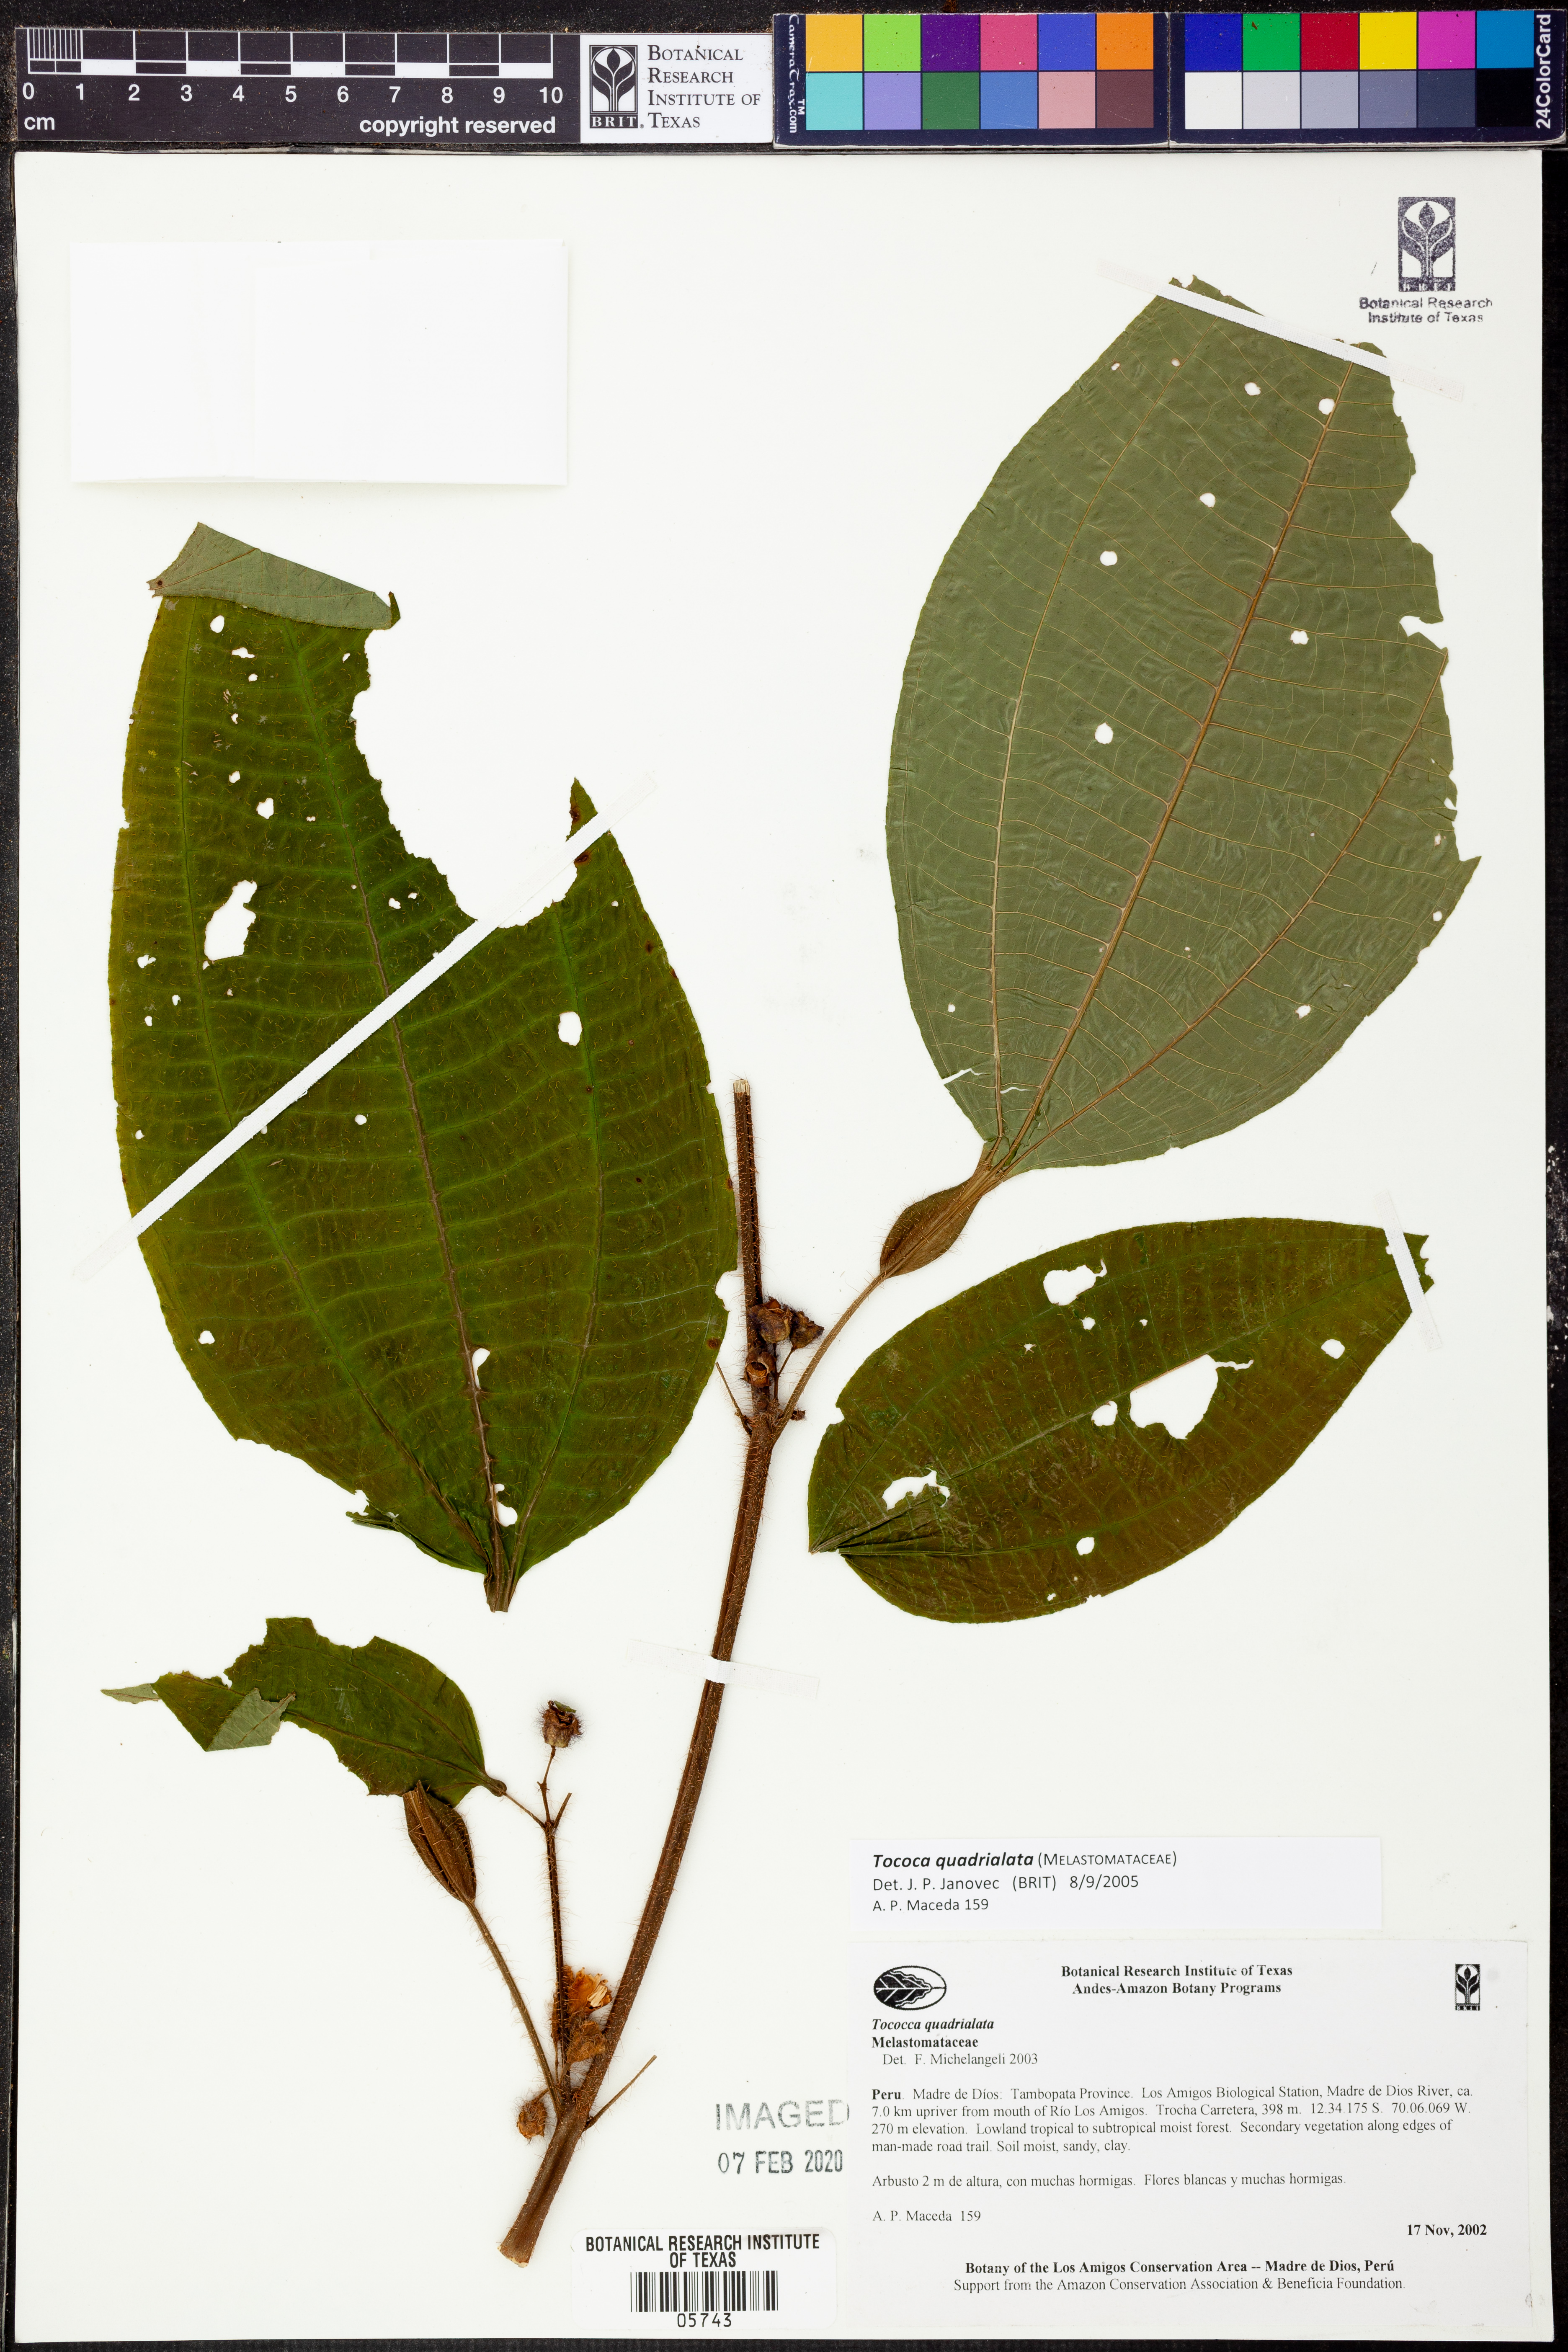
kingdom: Plantae
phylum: Tracheophyta
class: Magnoliopsida
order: Myrtales
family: Melastomataceae
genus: Miconia
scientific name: Miconia microphysca
